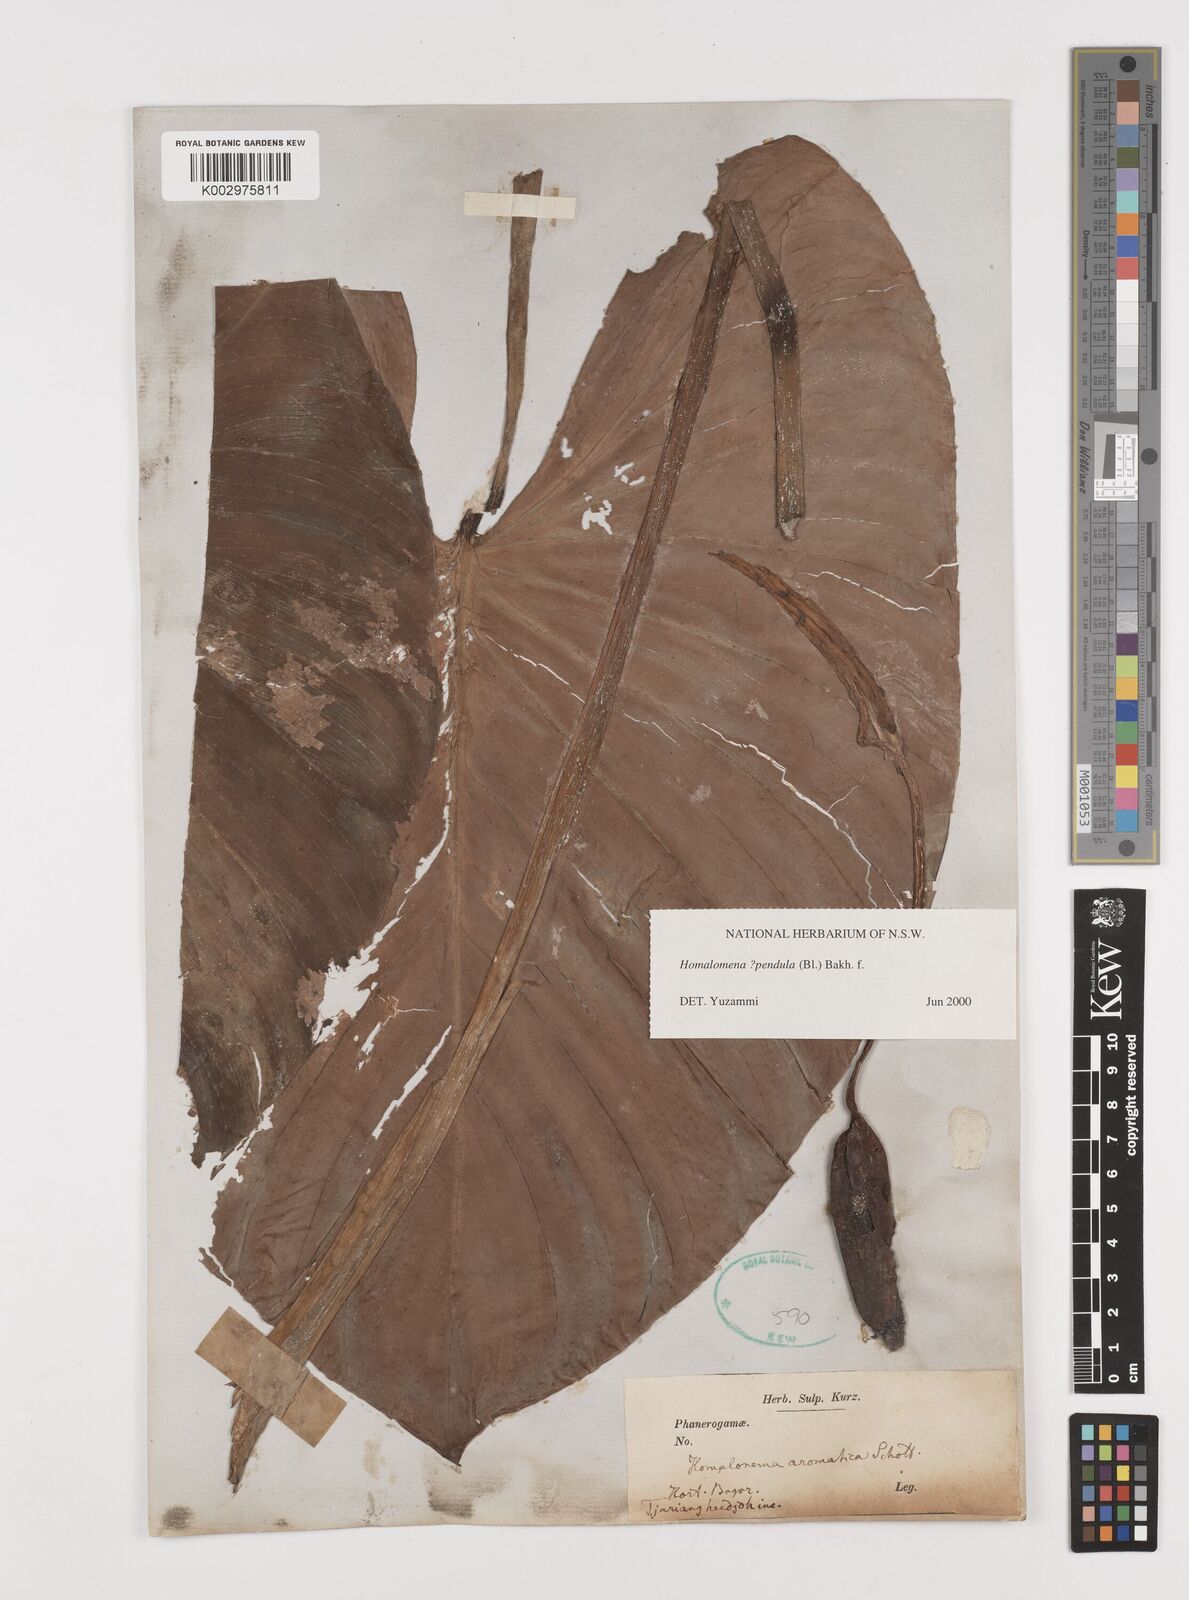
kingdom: Plantae
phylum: Tracheophyta
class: Liliopsida
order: Alismatales
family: Araceae
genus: Homalomena
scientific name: Homalomena pendula
